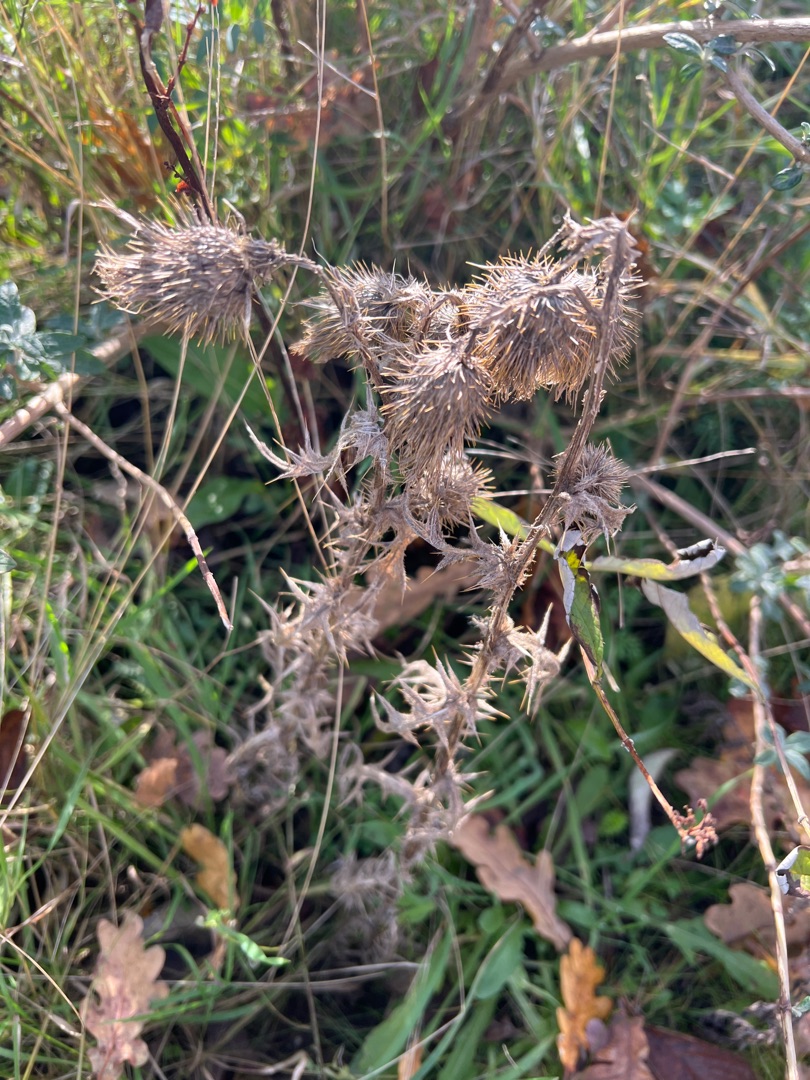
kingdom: Plantae
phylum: Tracheophyta
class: Magnoliopsida
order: Asterales
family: Asteraceae
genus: Cirsium
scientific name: Cirsium vulgare
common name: Horse-tidsel
